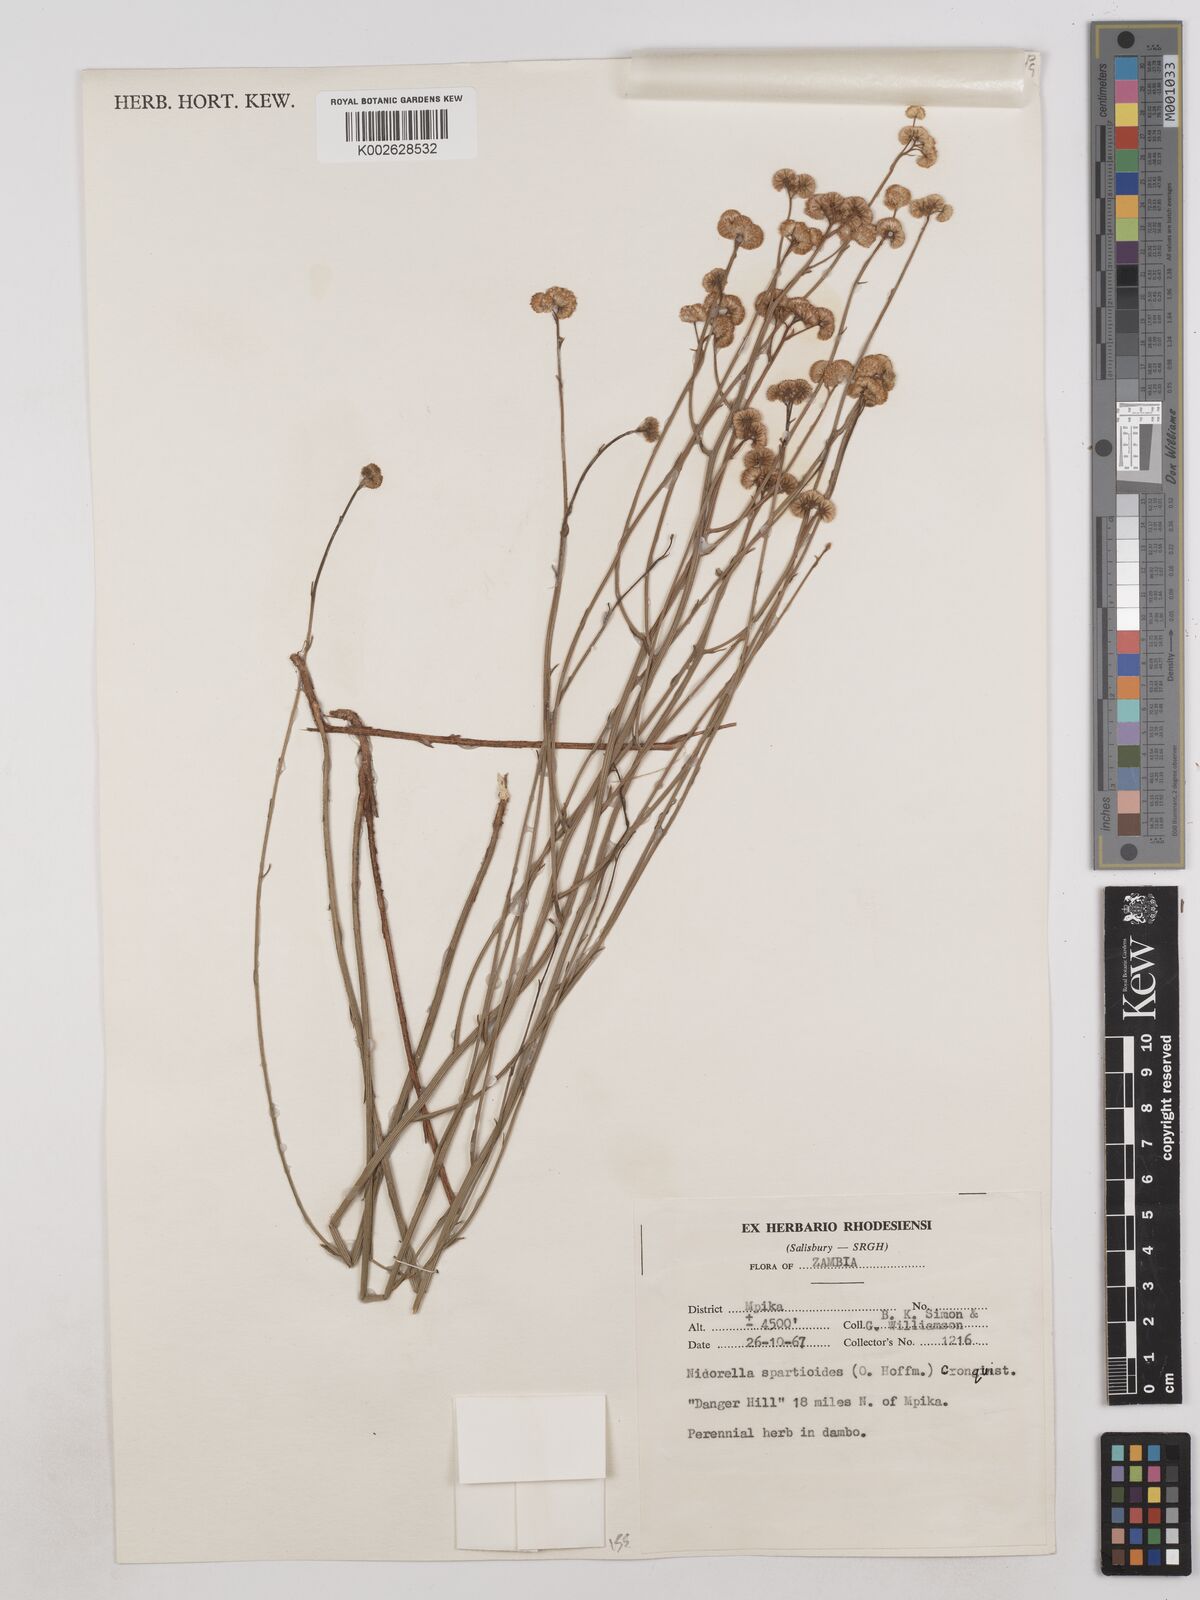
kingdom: Plantae
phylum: Tracheophyta
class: Magnoliopsida
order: Asterales
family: Asteraceae
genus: Nidorella
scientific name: Nidorella spartioides
